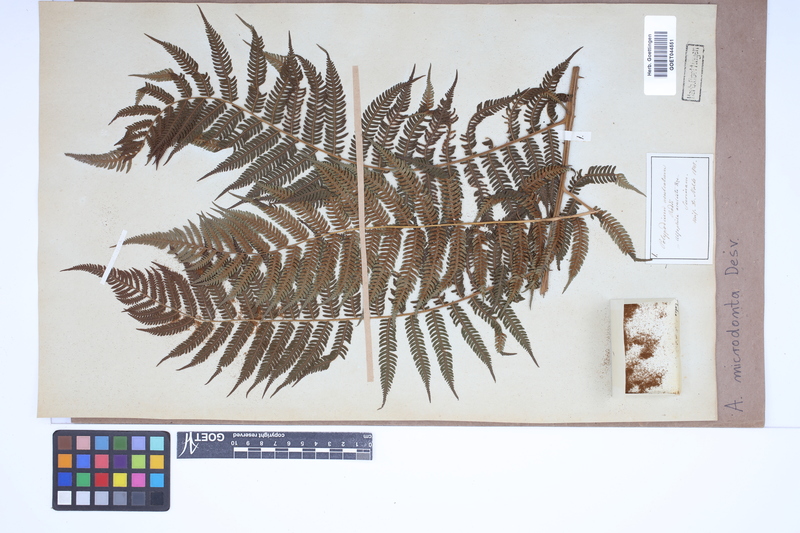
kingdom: Plantae
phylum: Tracheophyta
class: Polypodiopsida
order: Cyatheales
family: Cyatheaceae
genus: Cyathea
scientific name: Cyathea microdonta
